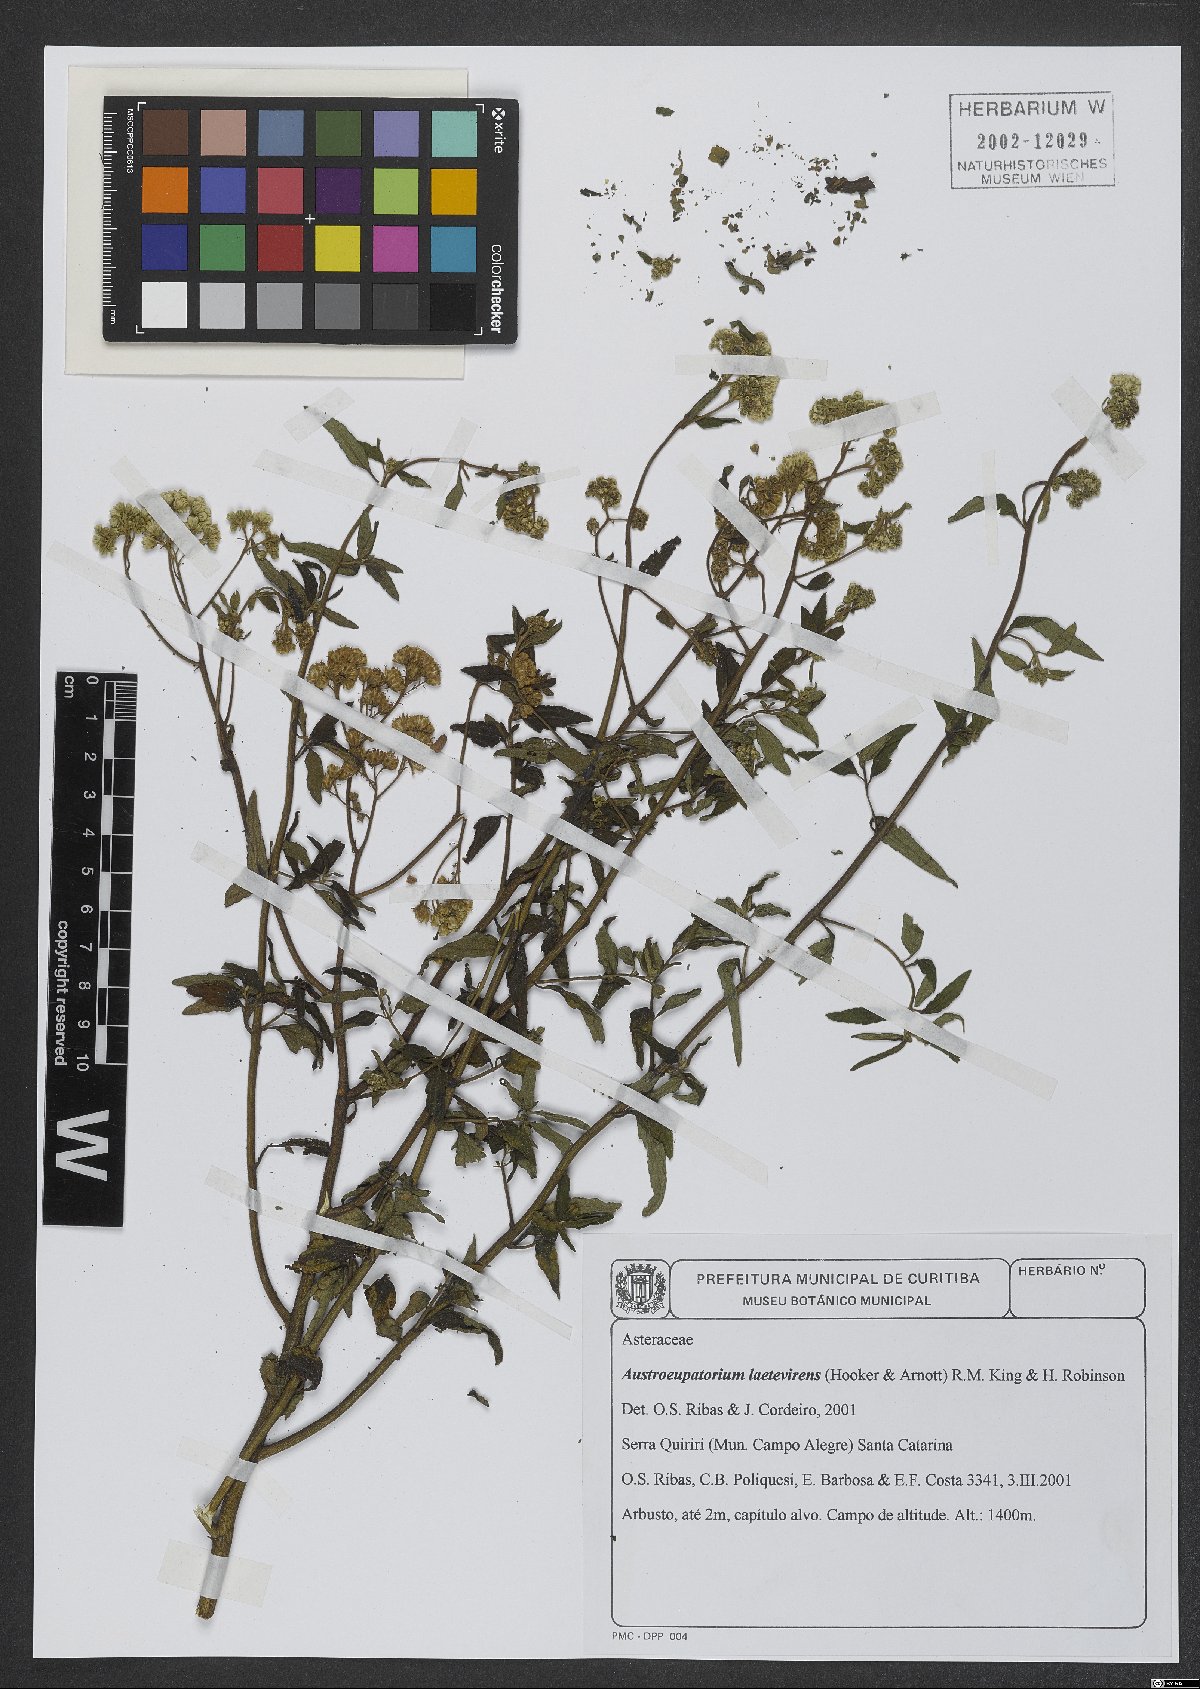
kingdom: Plantae
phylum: Tracheophyta
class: Magnoliopsida
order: Asterales
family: Asteraceae
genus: Austroeupatorium
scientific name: Austroeupatorium laetevirens
